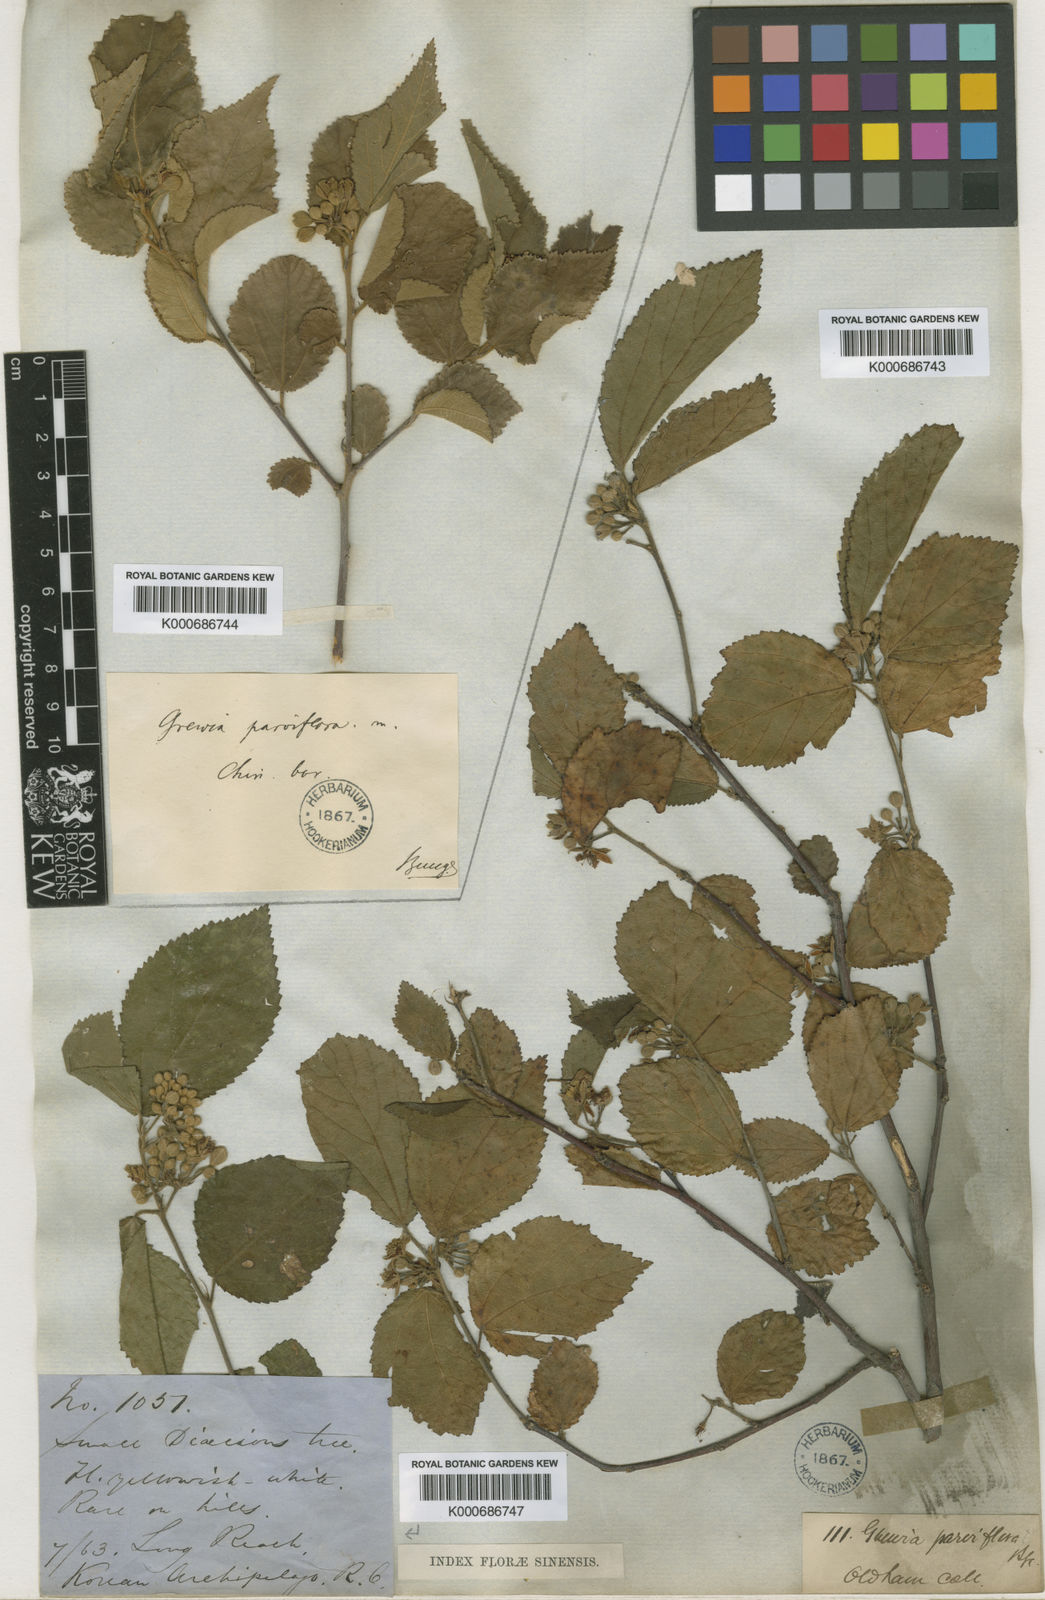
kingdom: Plantae
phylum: Tracheophyta
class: Magnoliopsida
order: Malvales
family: Malvaceae
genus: Grewia
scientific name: Grewia biloba
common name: Bilobed grewia
